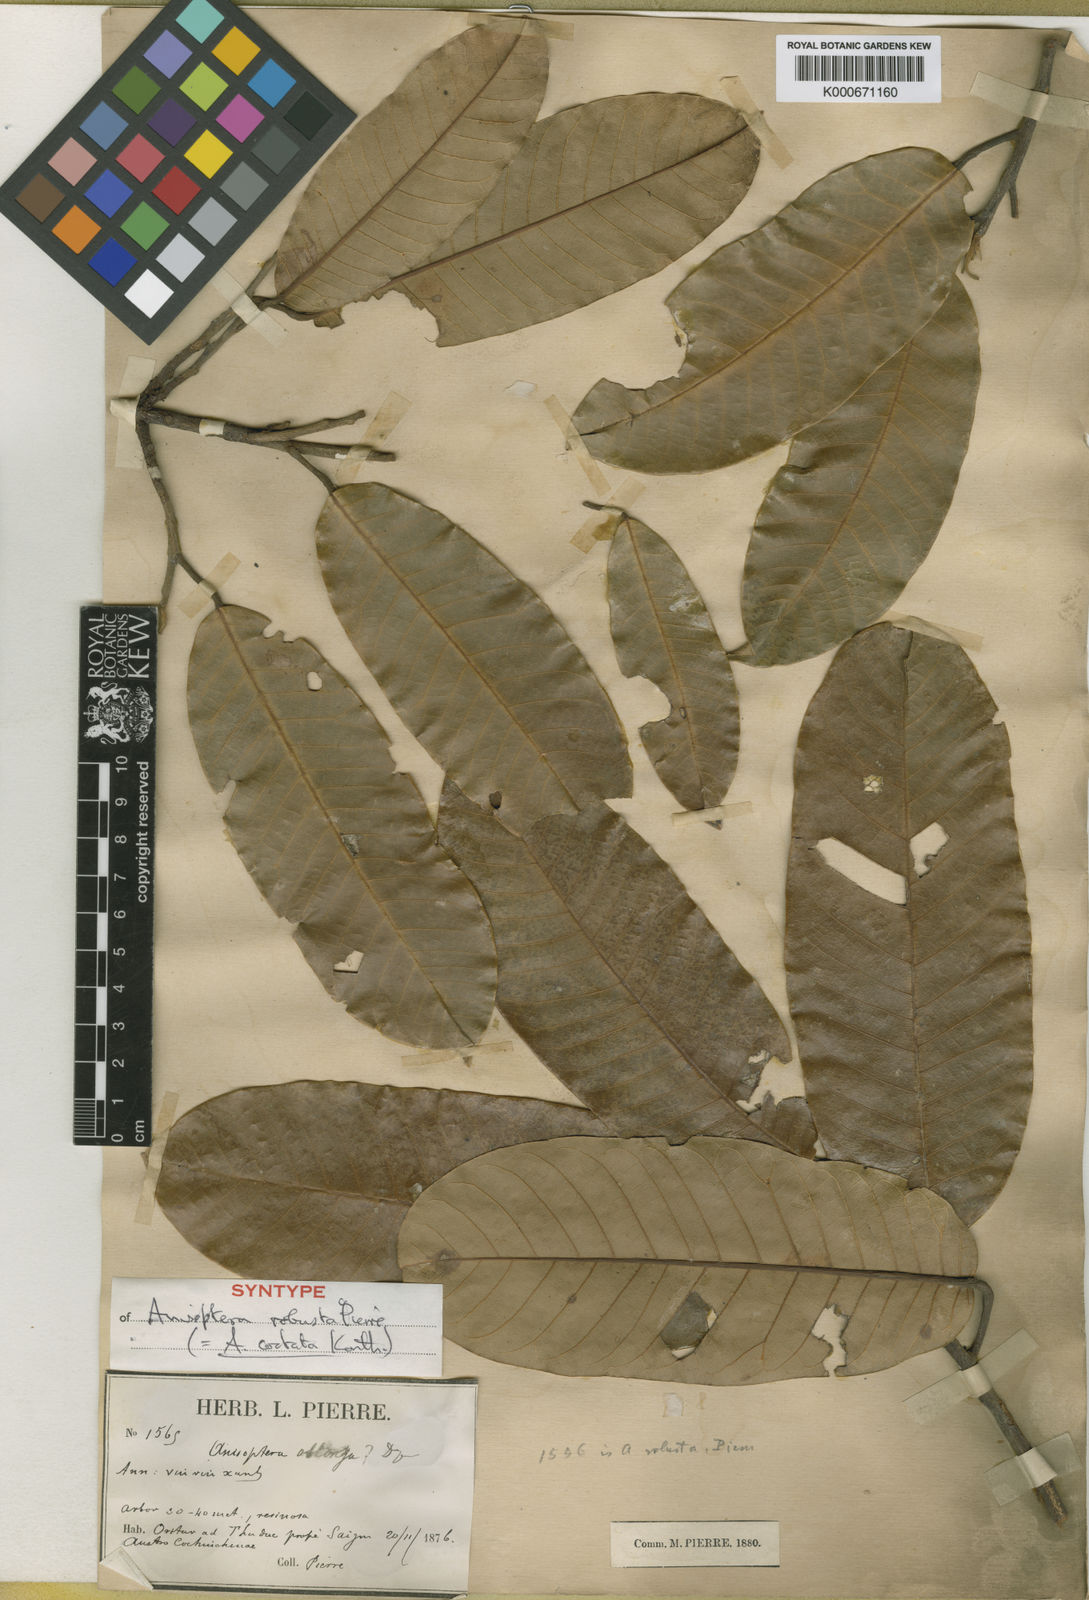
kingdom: Plantae
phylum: Tracheophyta
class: Magnoliopsida
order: Malvales
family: Dipterocarpaceae
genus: Anisoptera
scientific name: Anisoptera costata
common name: Mersawa
